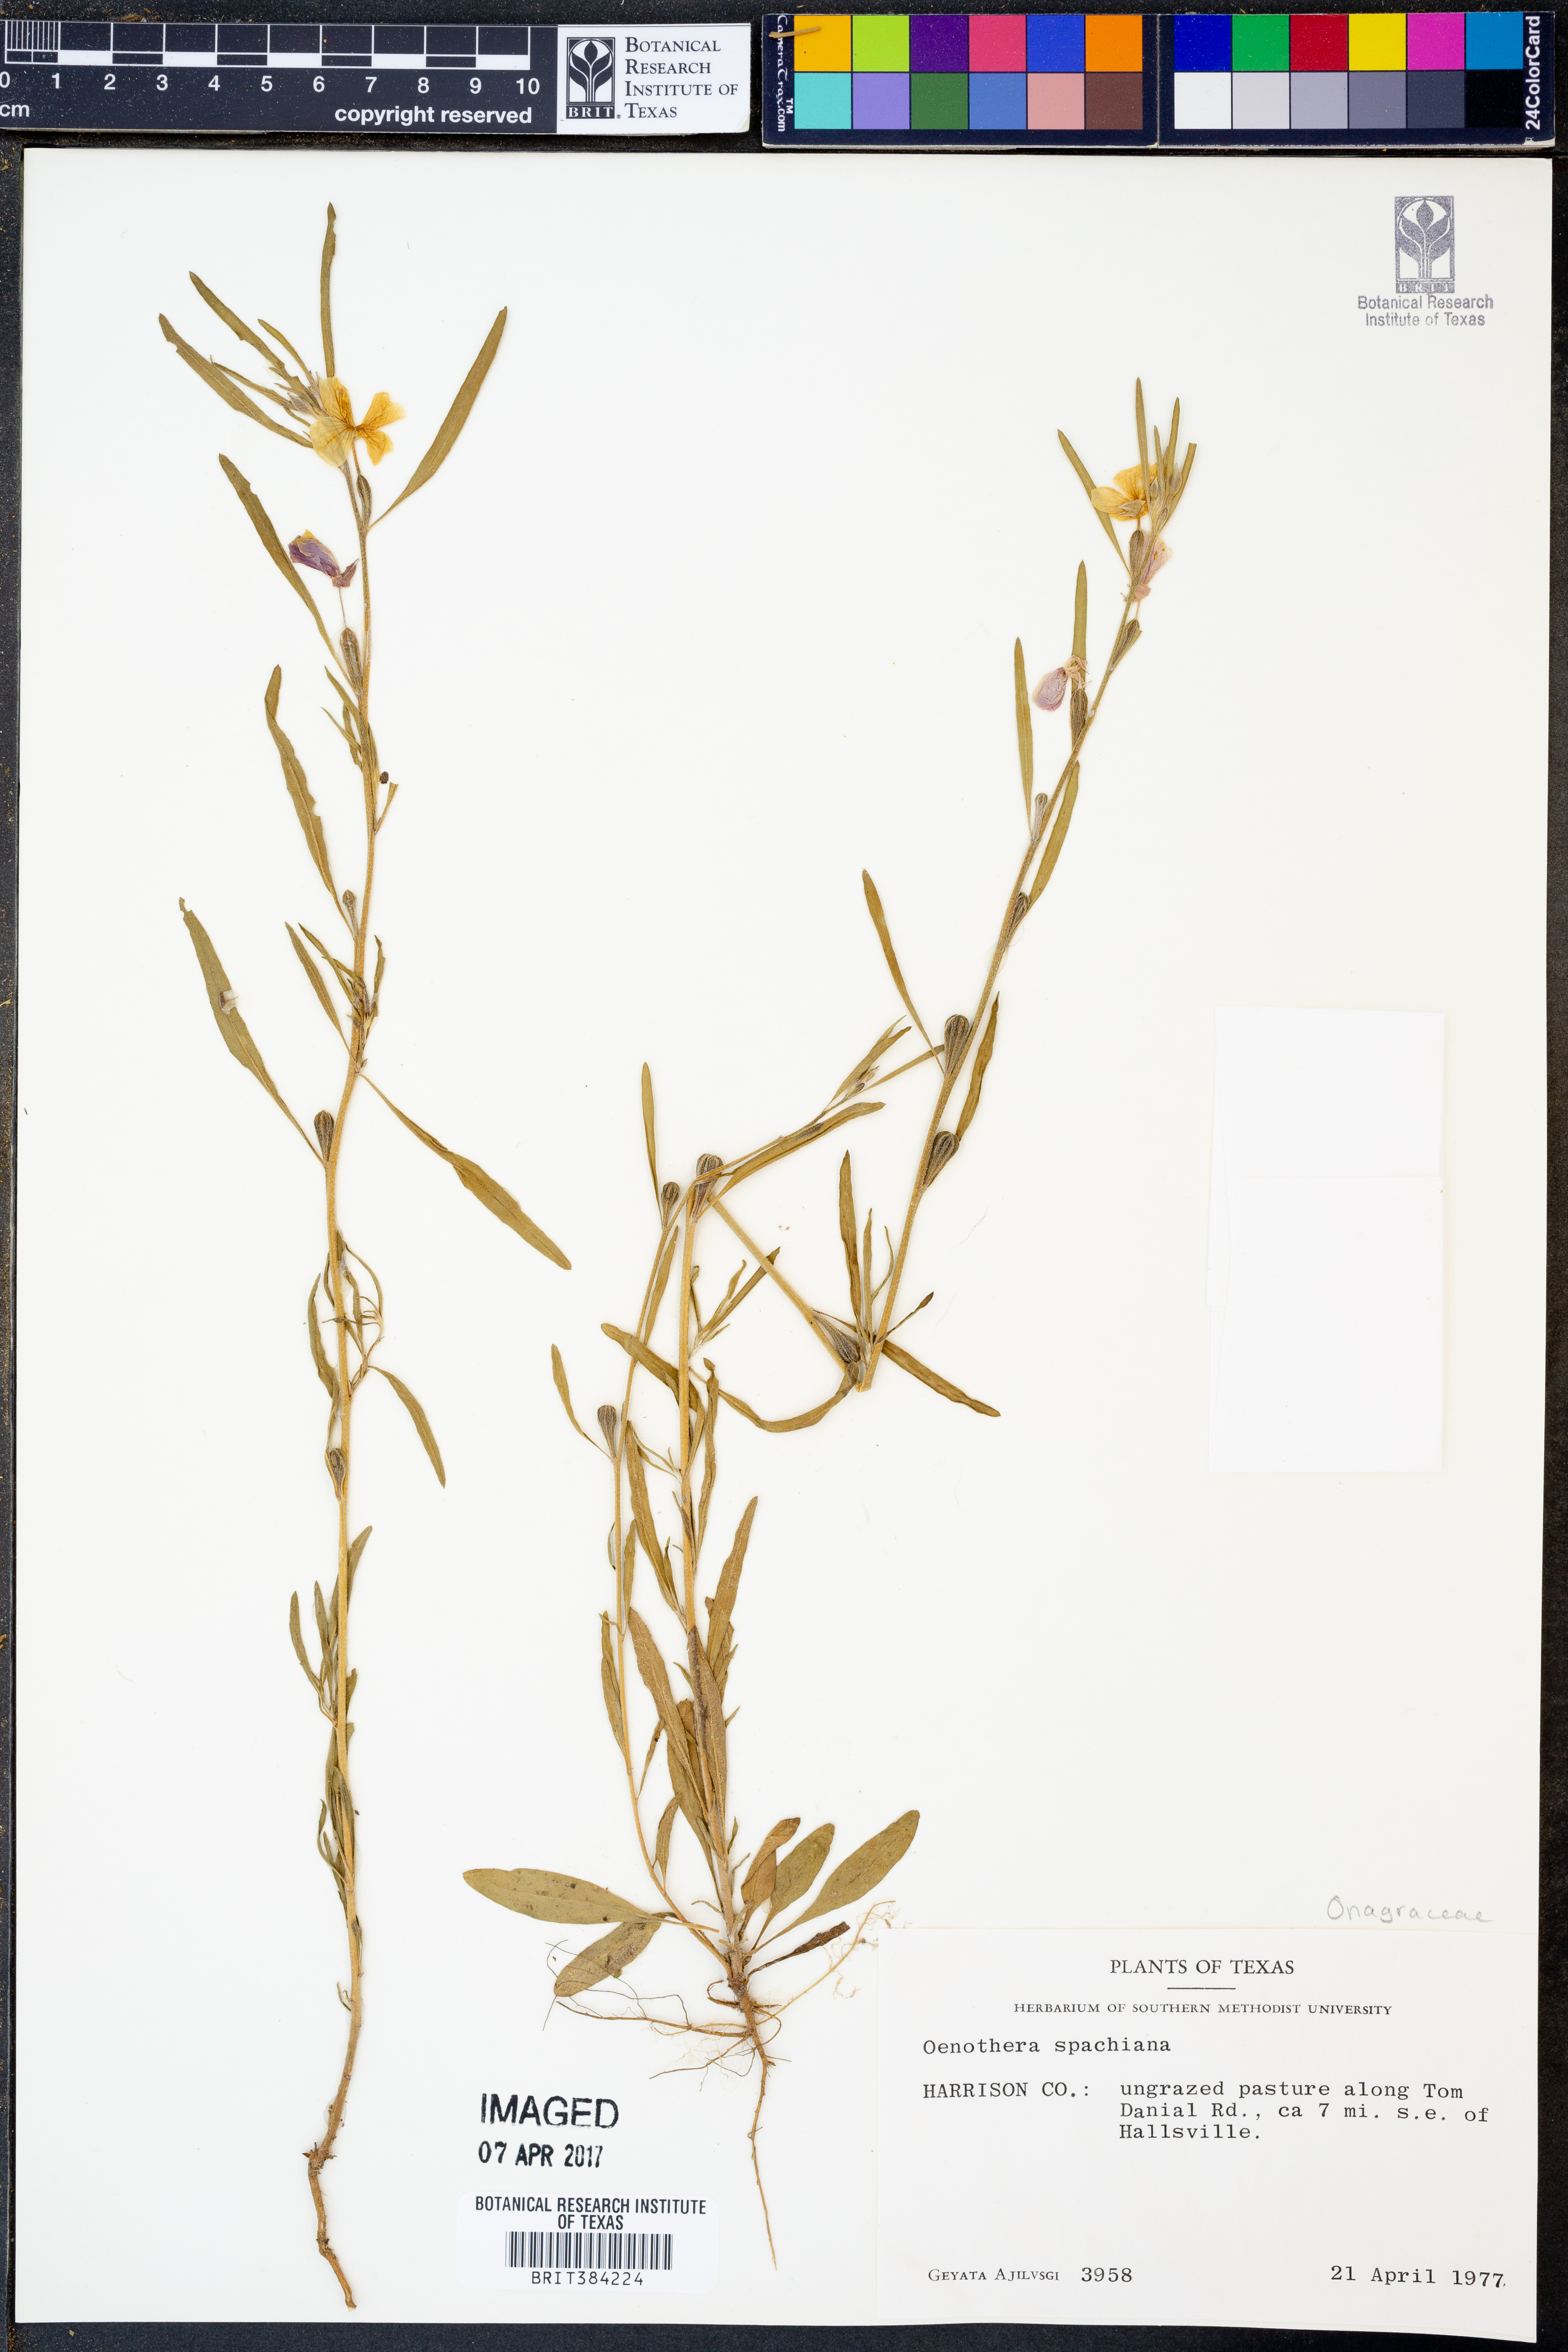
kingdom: Plantae
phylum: Tracheophyta
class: Magnoliopsida
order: Myrtales
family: Onagraceae
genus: Oenothera
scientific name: Oenothera spachiana
